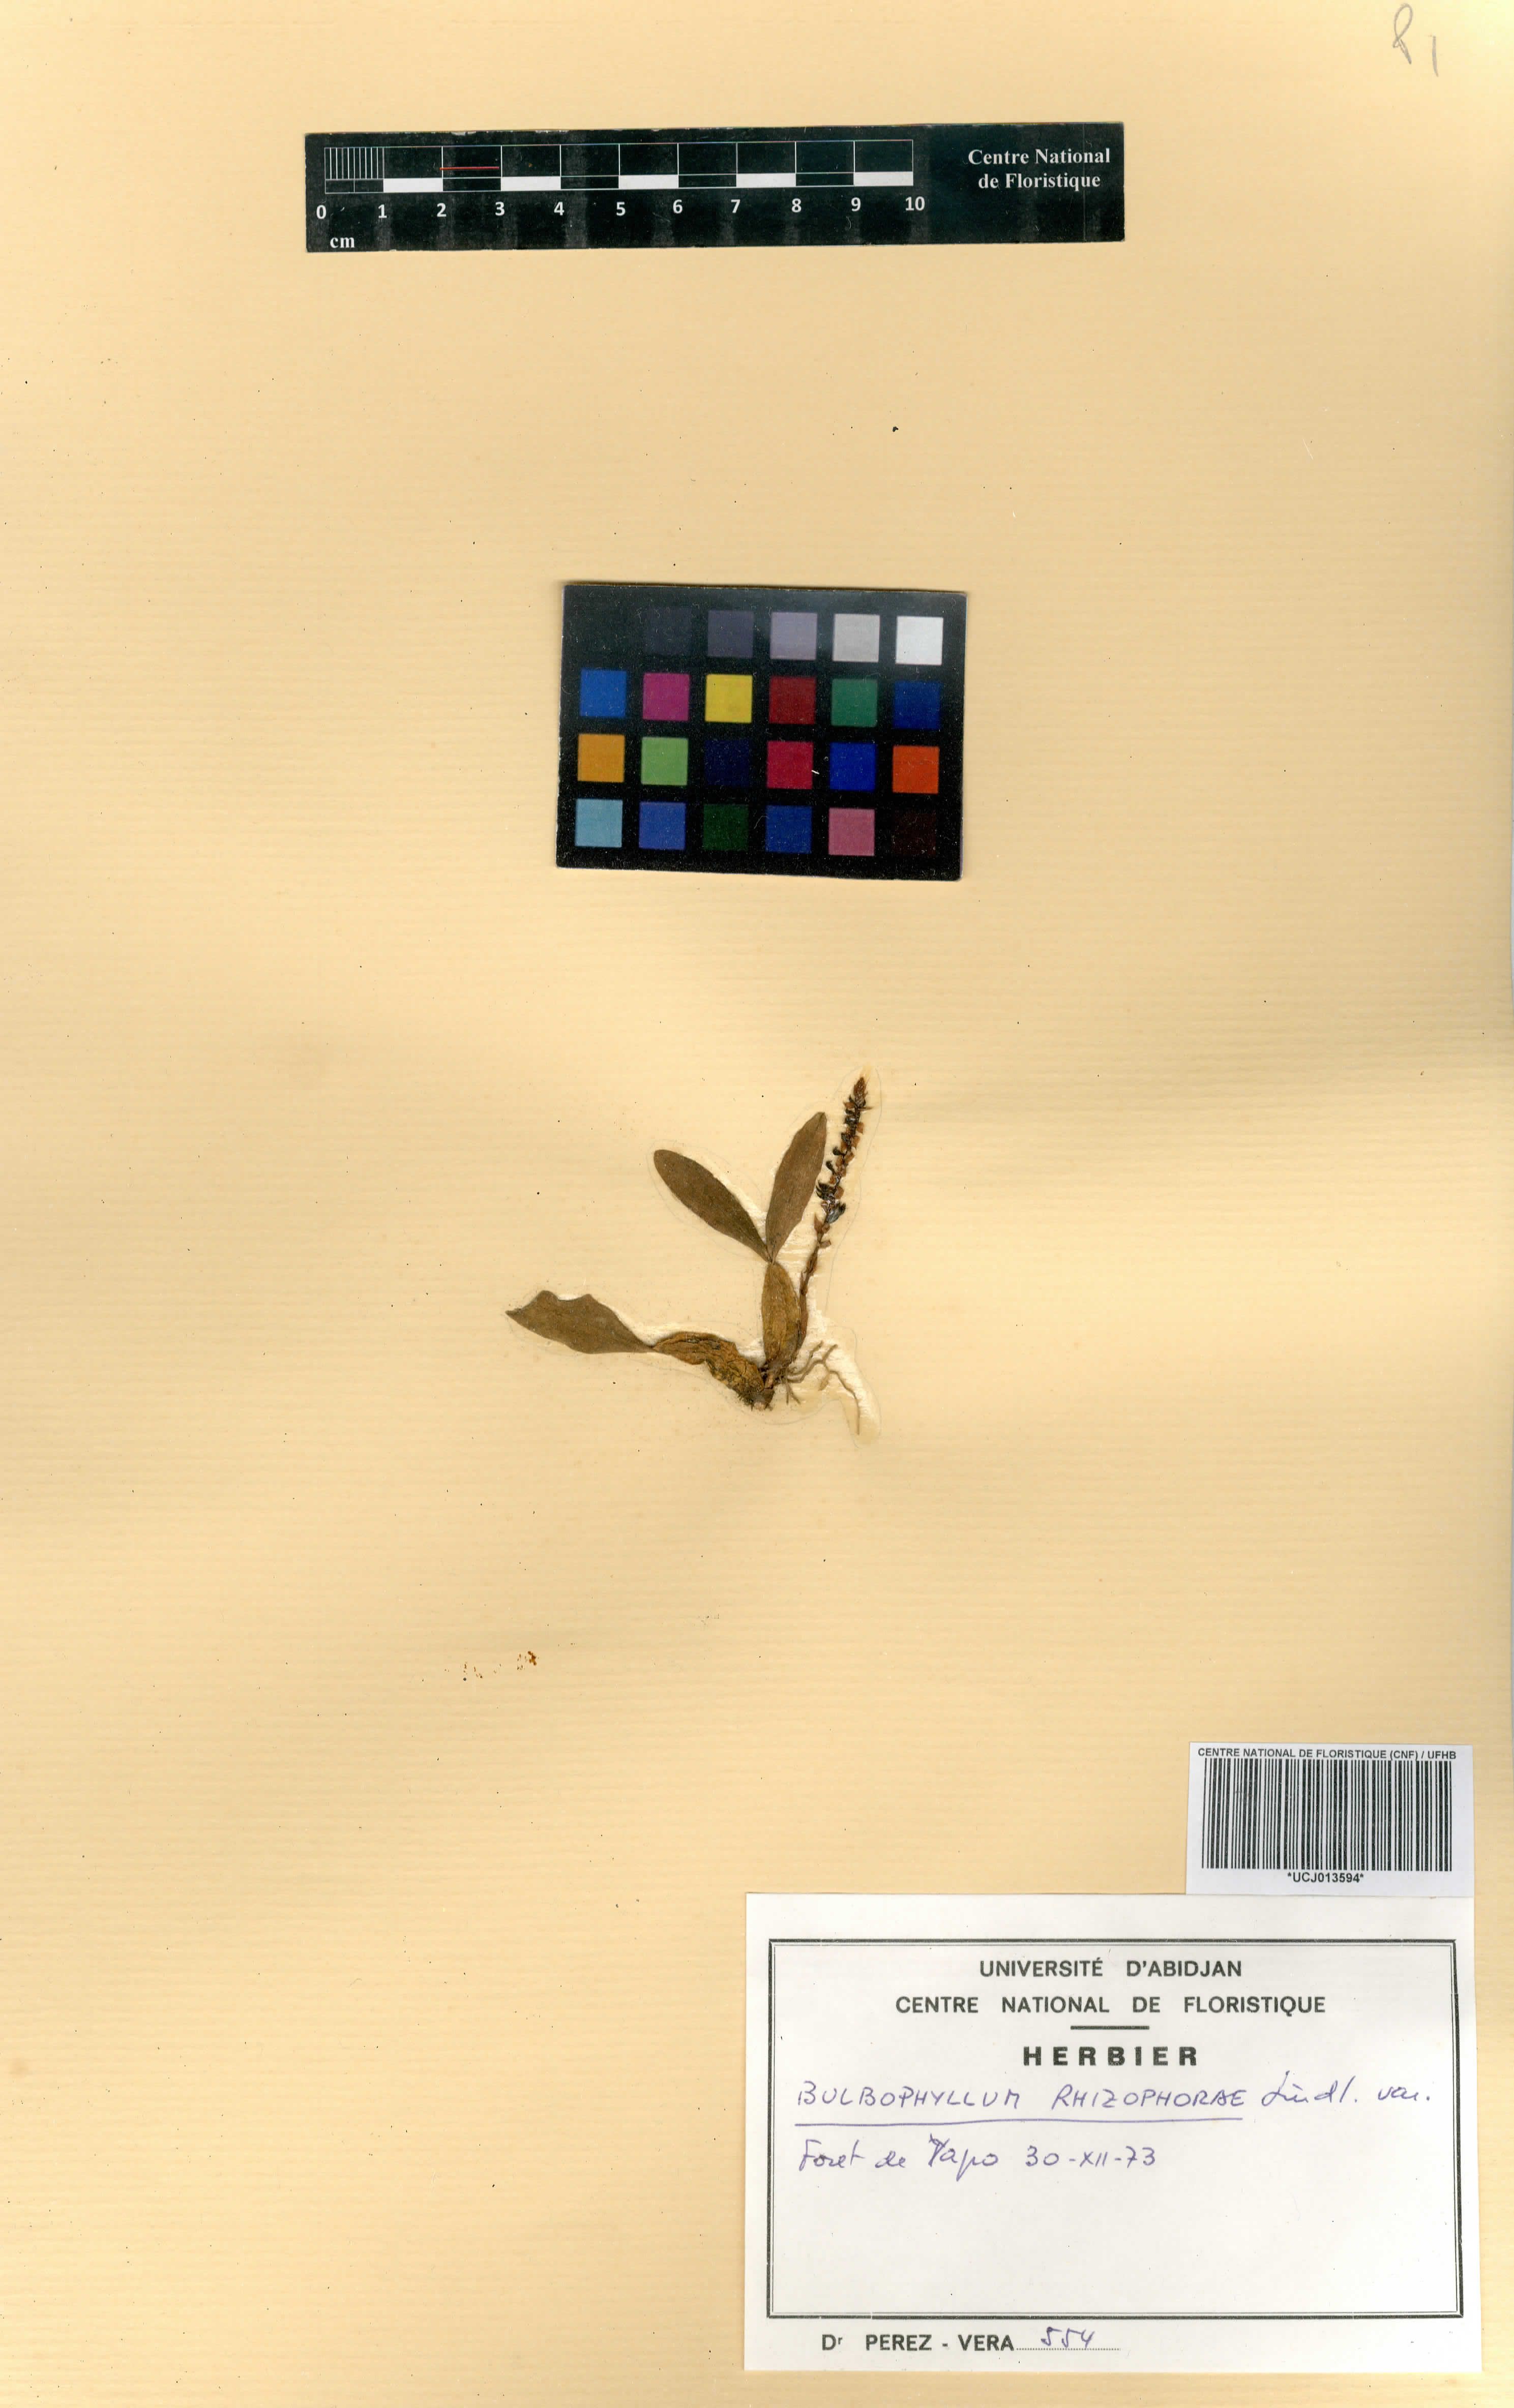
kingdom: Plantae
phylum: Tracheophyta
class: Liliopsida
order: Asparagales
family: Orchidaceae
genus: Bulbophyllum
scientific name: Bulbophyllum falcatum
